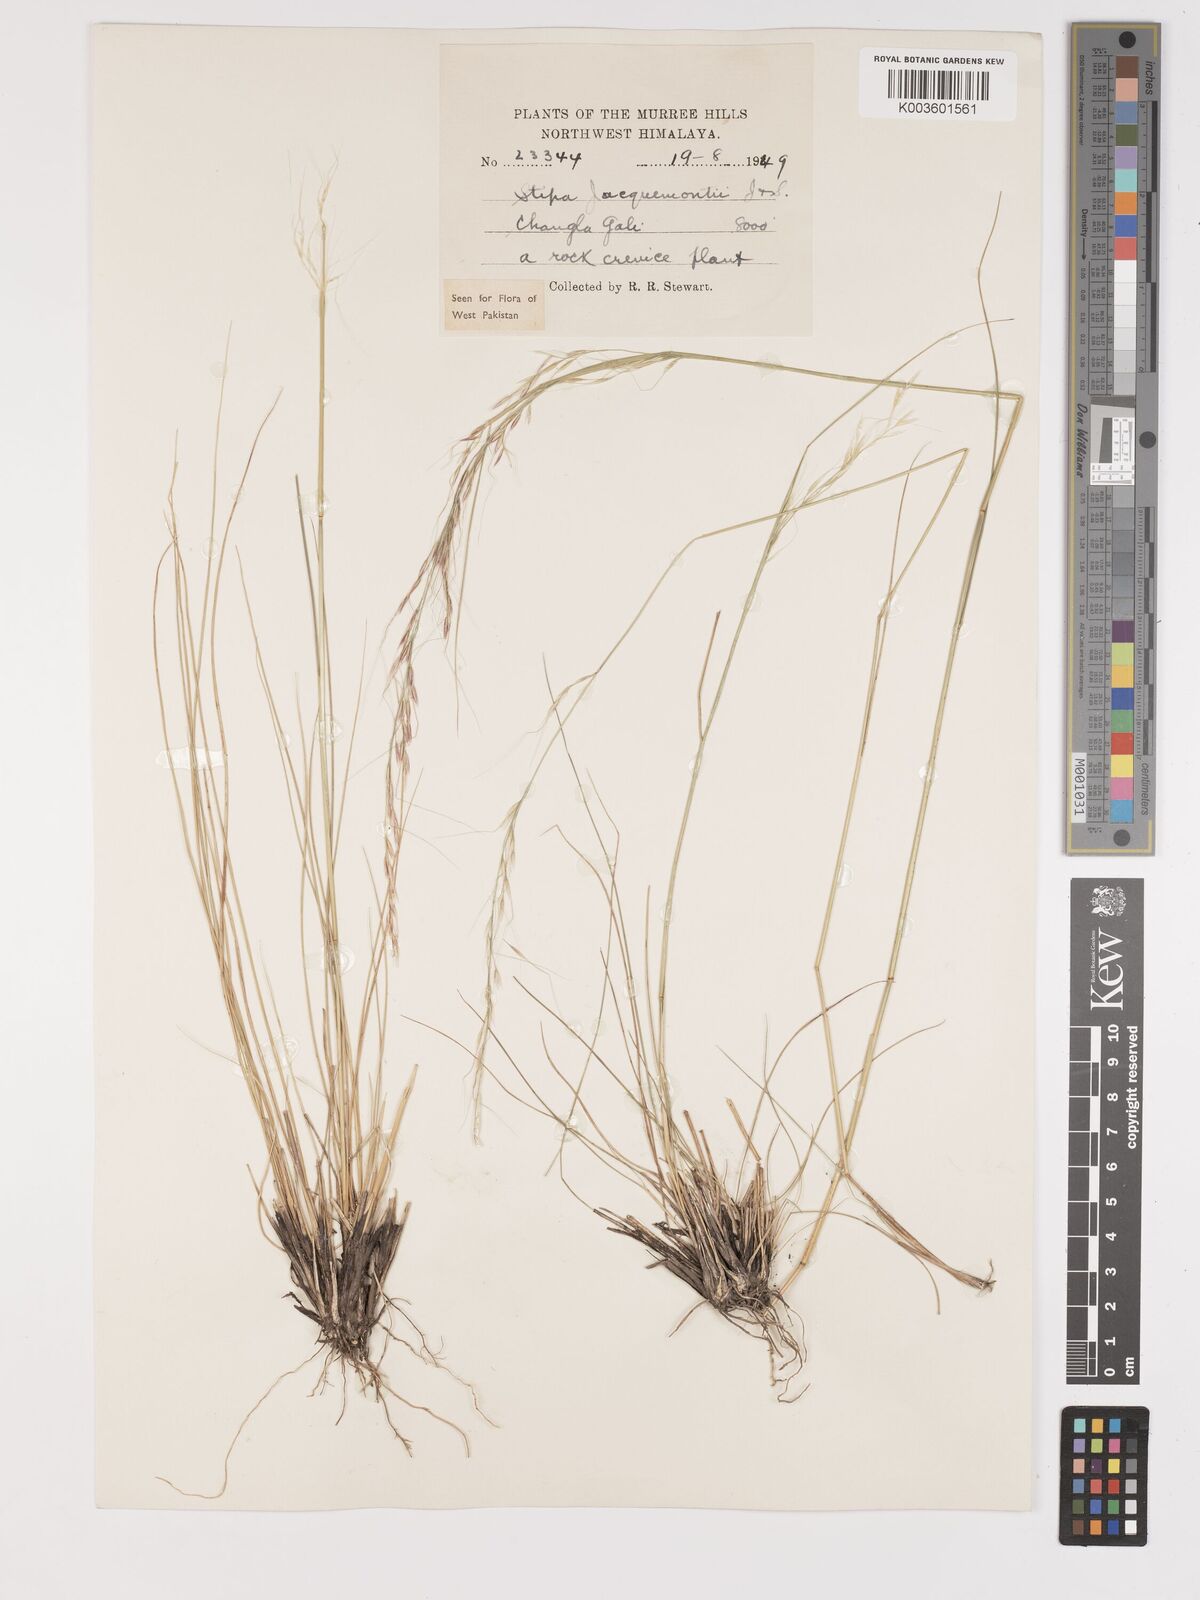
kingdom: Plantae
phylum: Tracheophyta
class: Liliopsida
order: Poales
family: Poaceae
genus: Achnatherum
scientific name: Achnatherum jacquemontii
